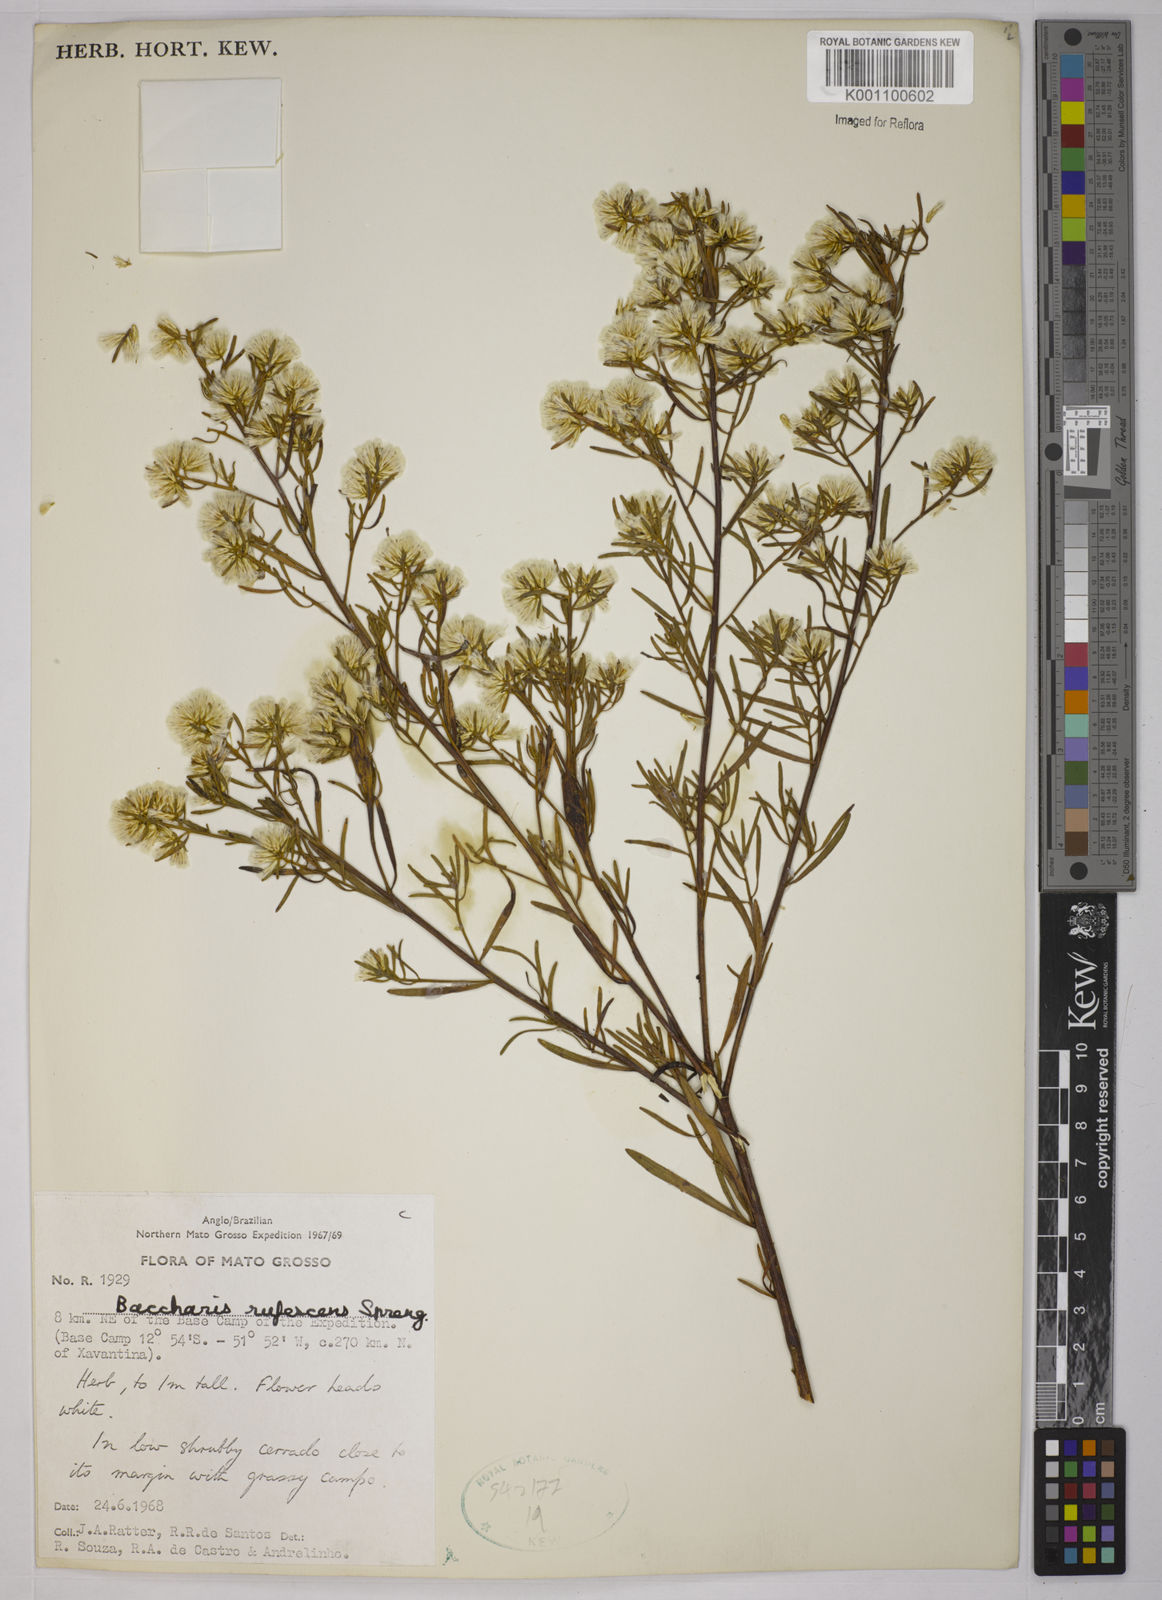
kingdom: Plantae
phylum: Tracheophyta
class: Magnoliopsida
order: Asterales
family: Asteraceae
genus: Baccharis
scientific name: Baccharis rufescens
